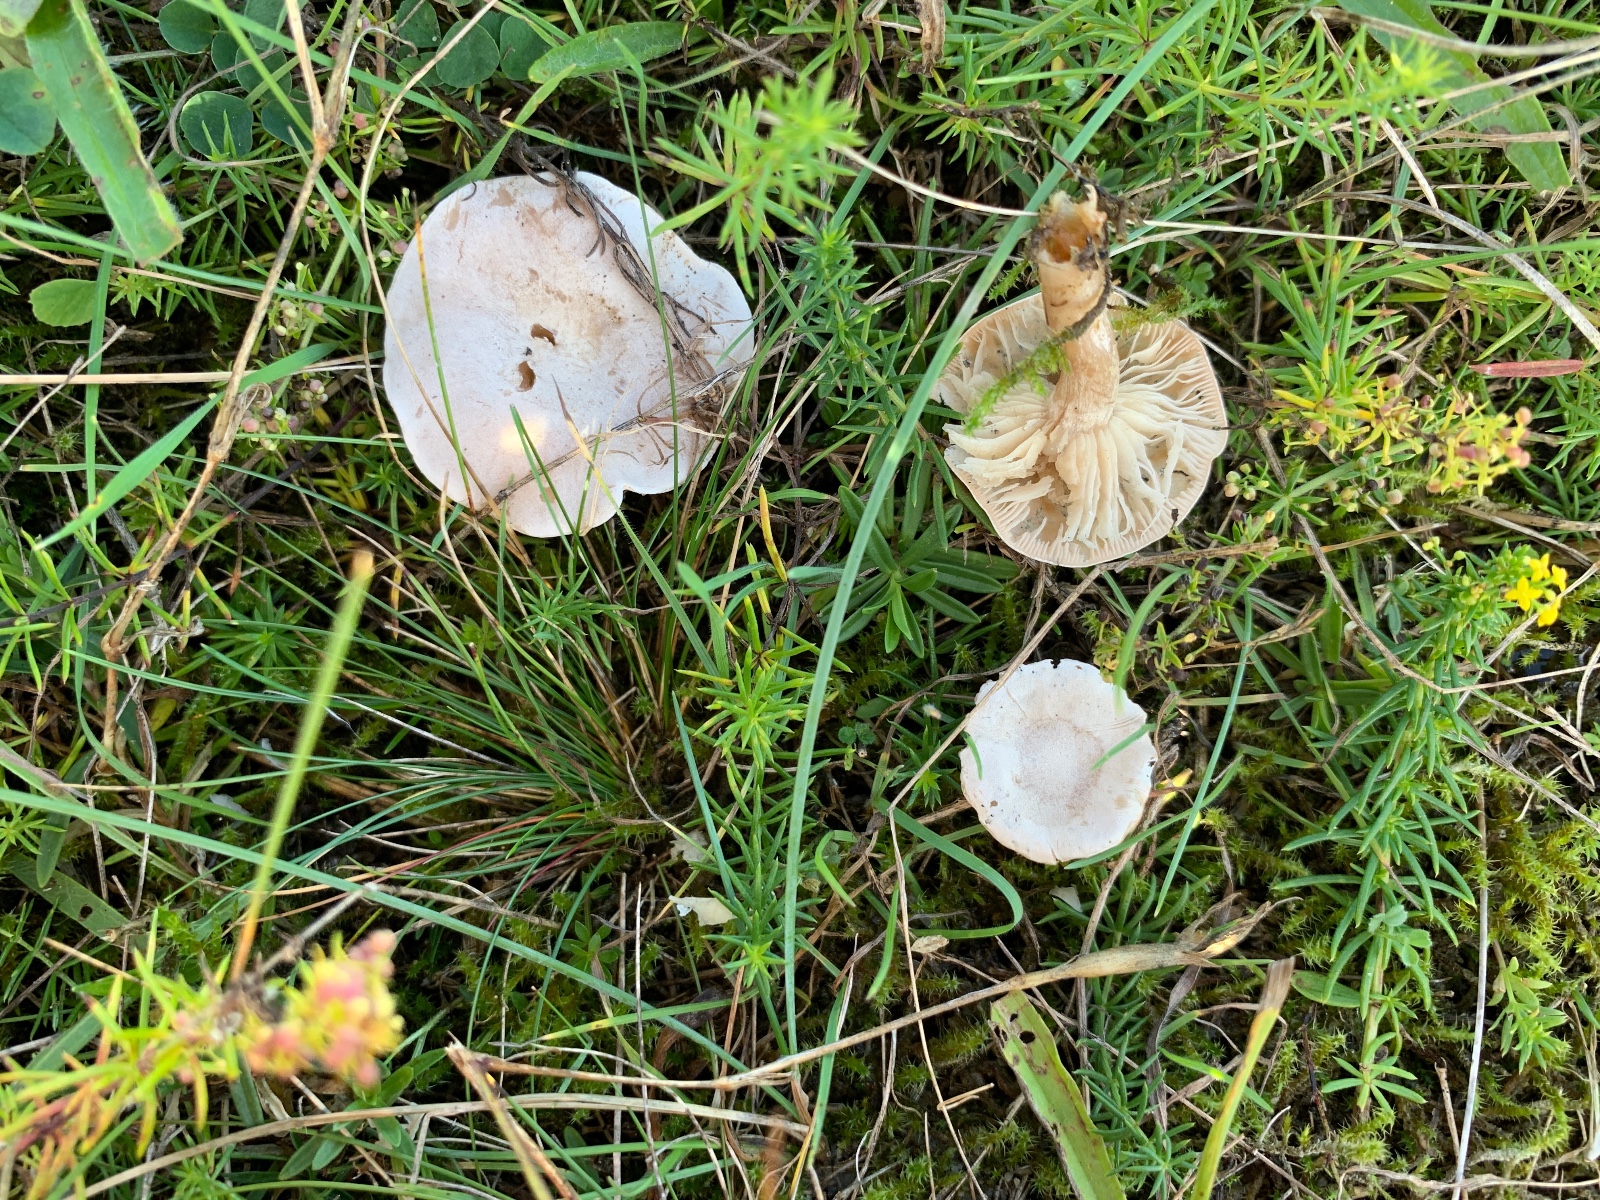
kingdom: Fungi
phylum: Basidiomycota
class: Agaricomycetes
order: Agaricales
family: Tricholomataceae
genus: Clitocybe
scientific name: Clitocybe rivulosa
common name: eng-tragthat
